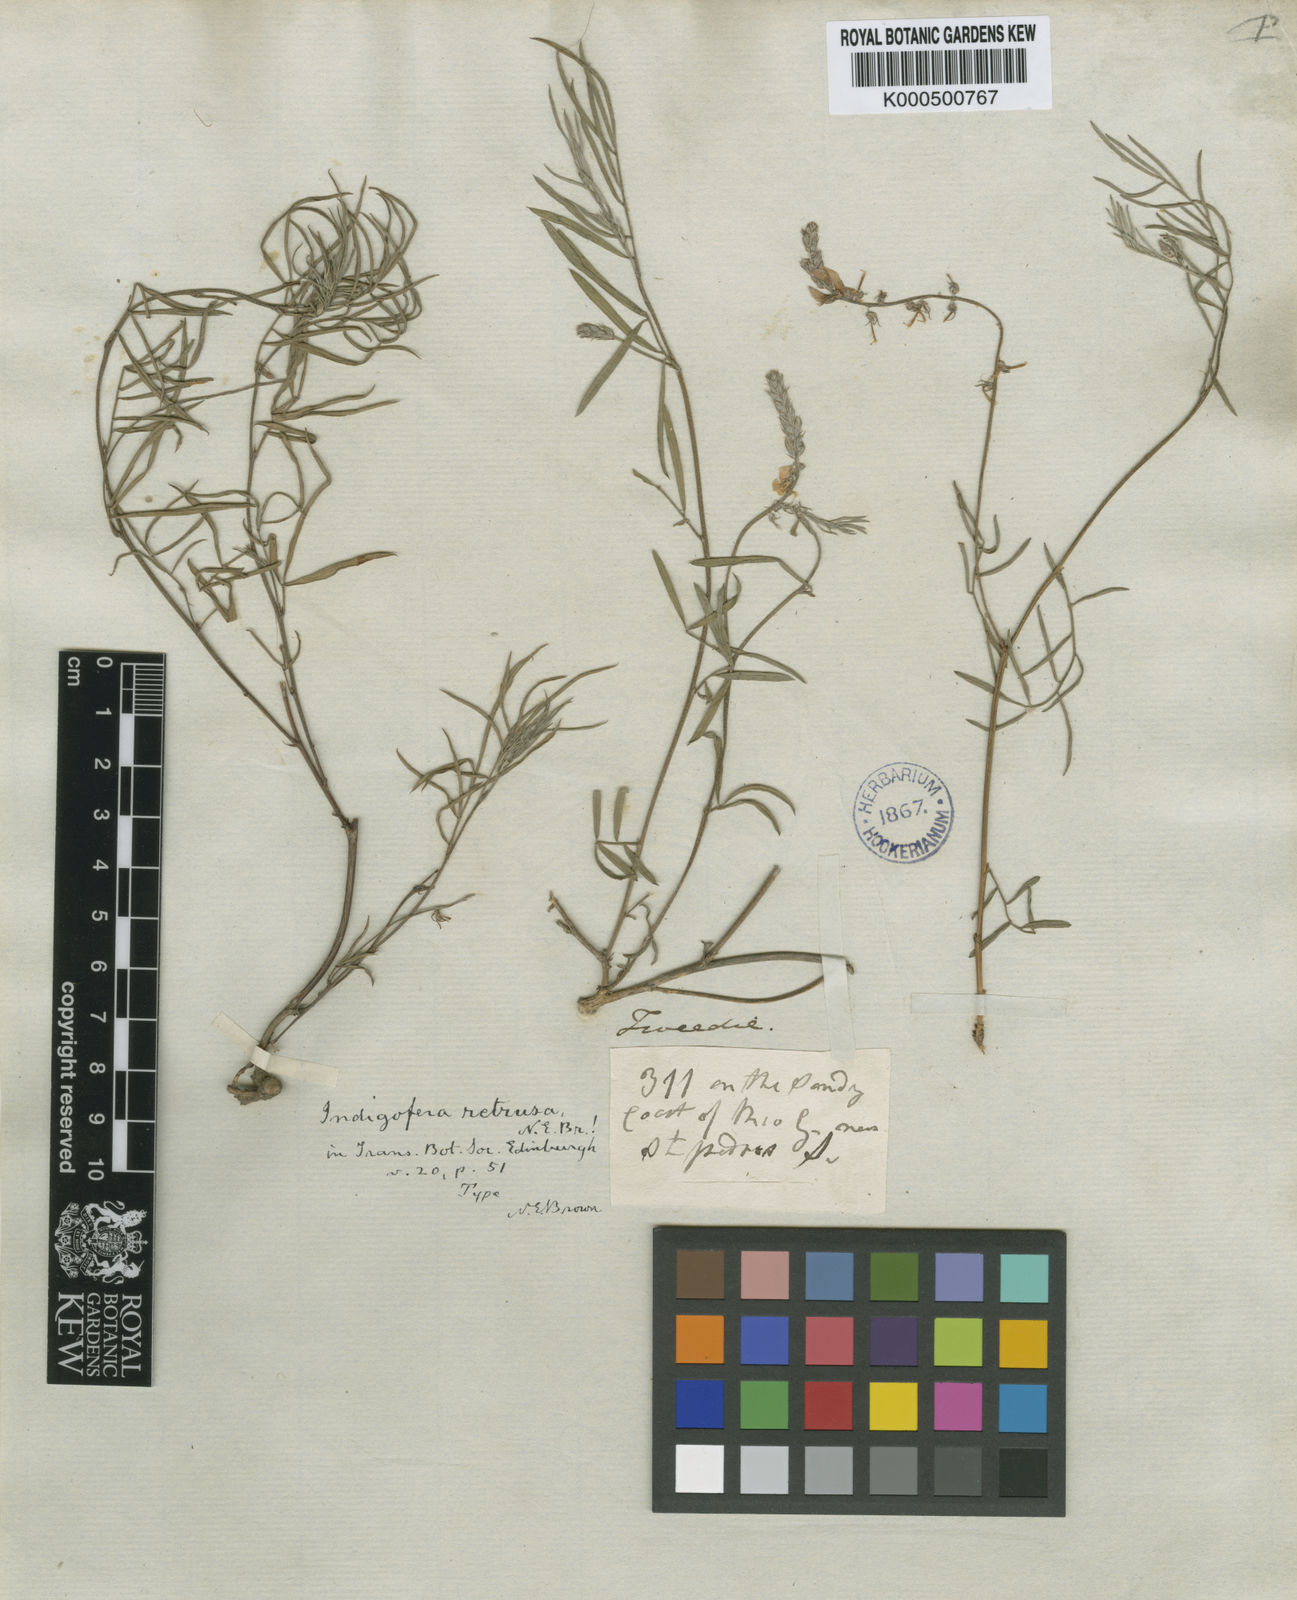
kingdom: Plantae
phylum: Tracheophyta
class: Magnoliopsida
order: Fabales
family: Fabaceae
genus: Indigofera
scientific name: Indigofera asperifolia
